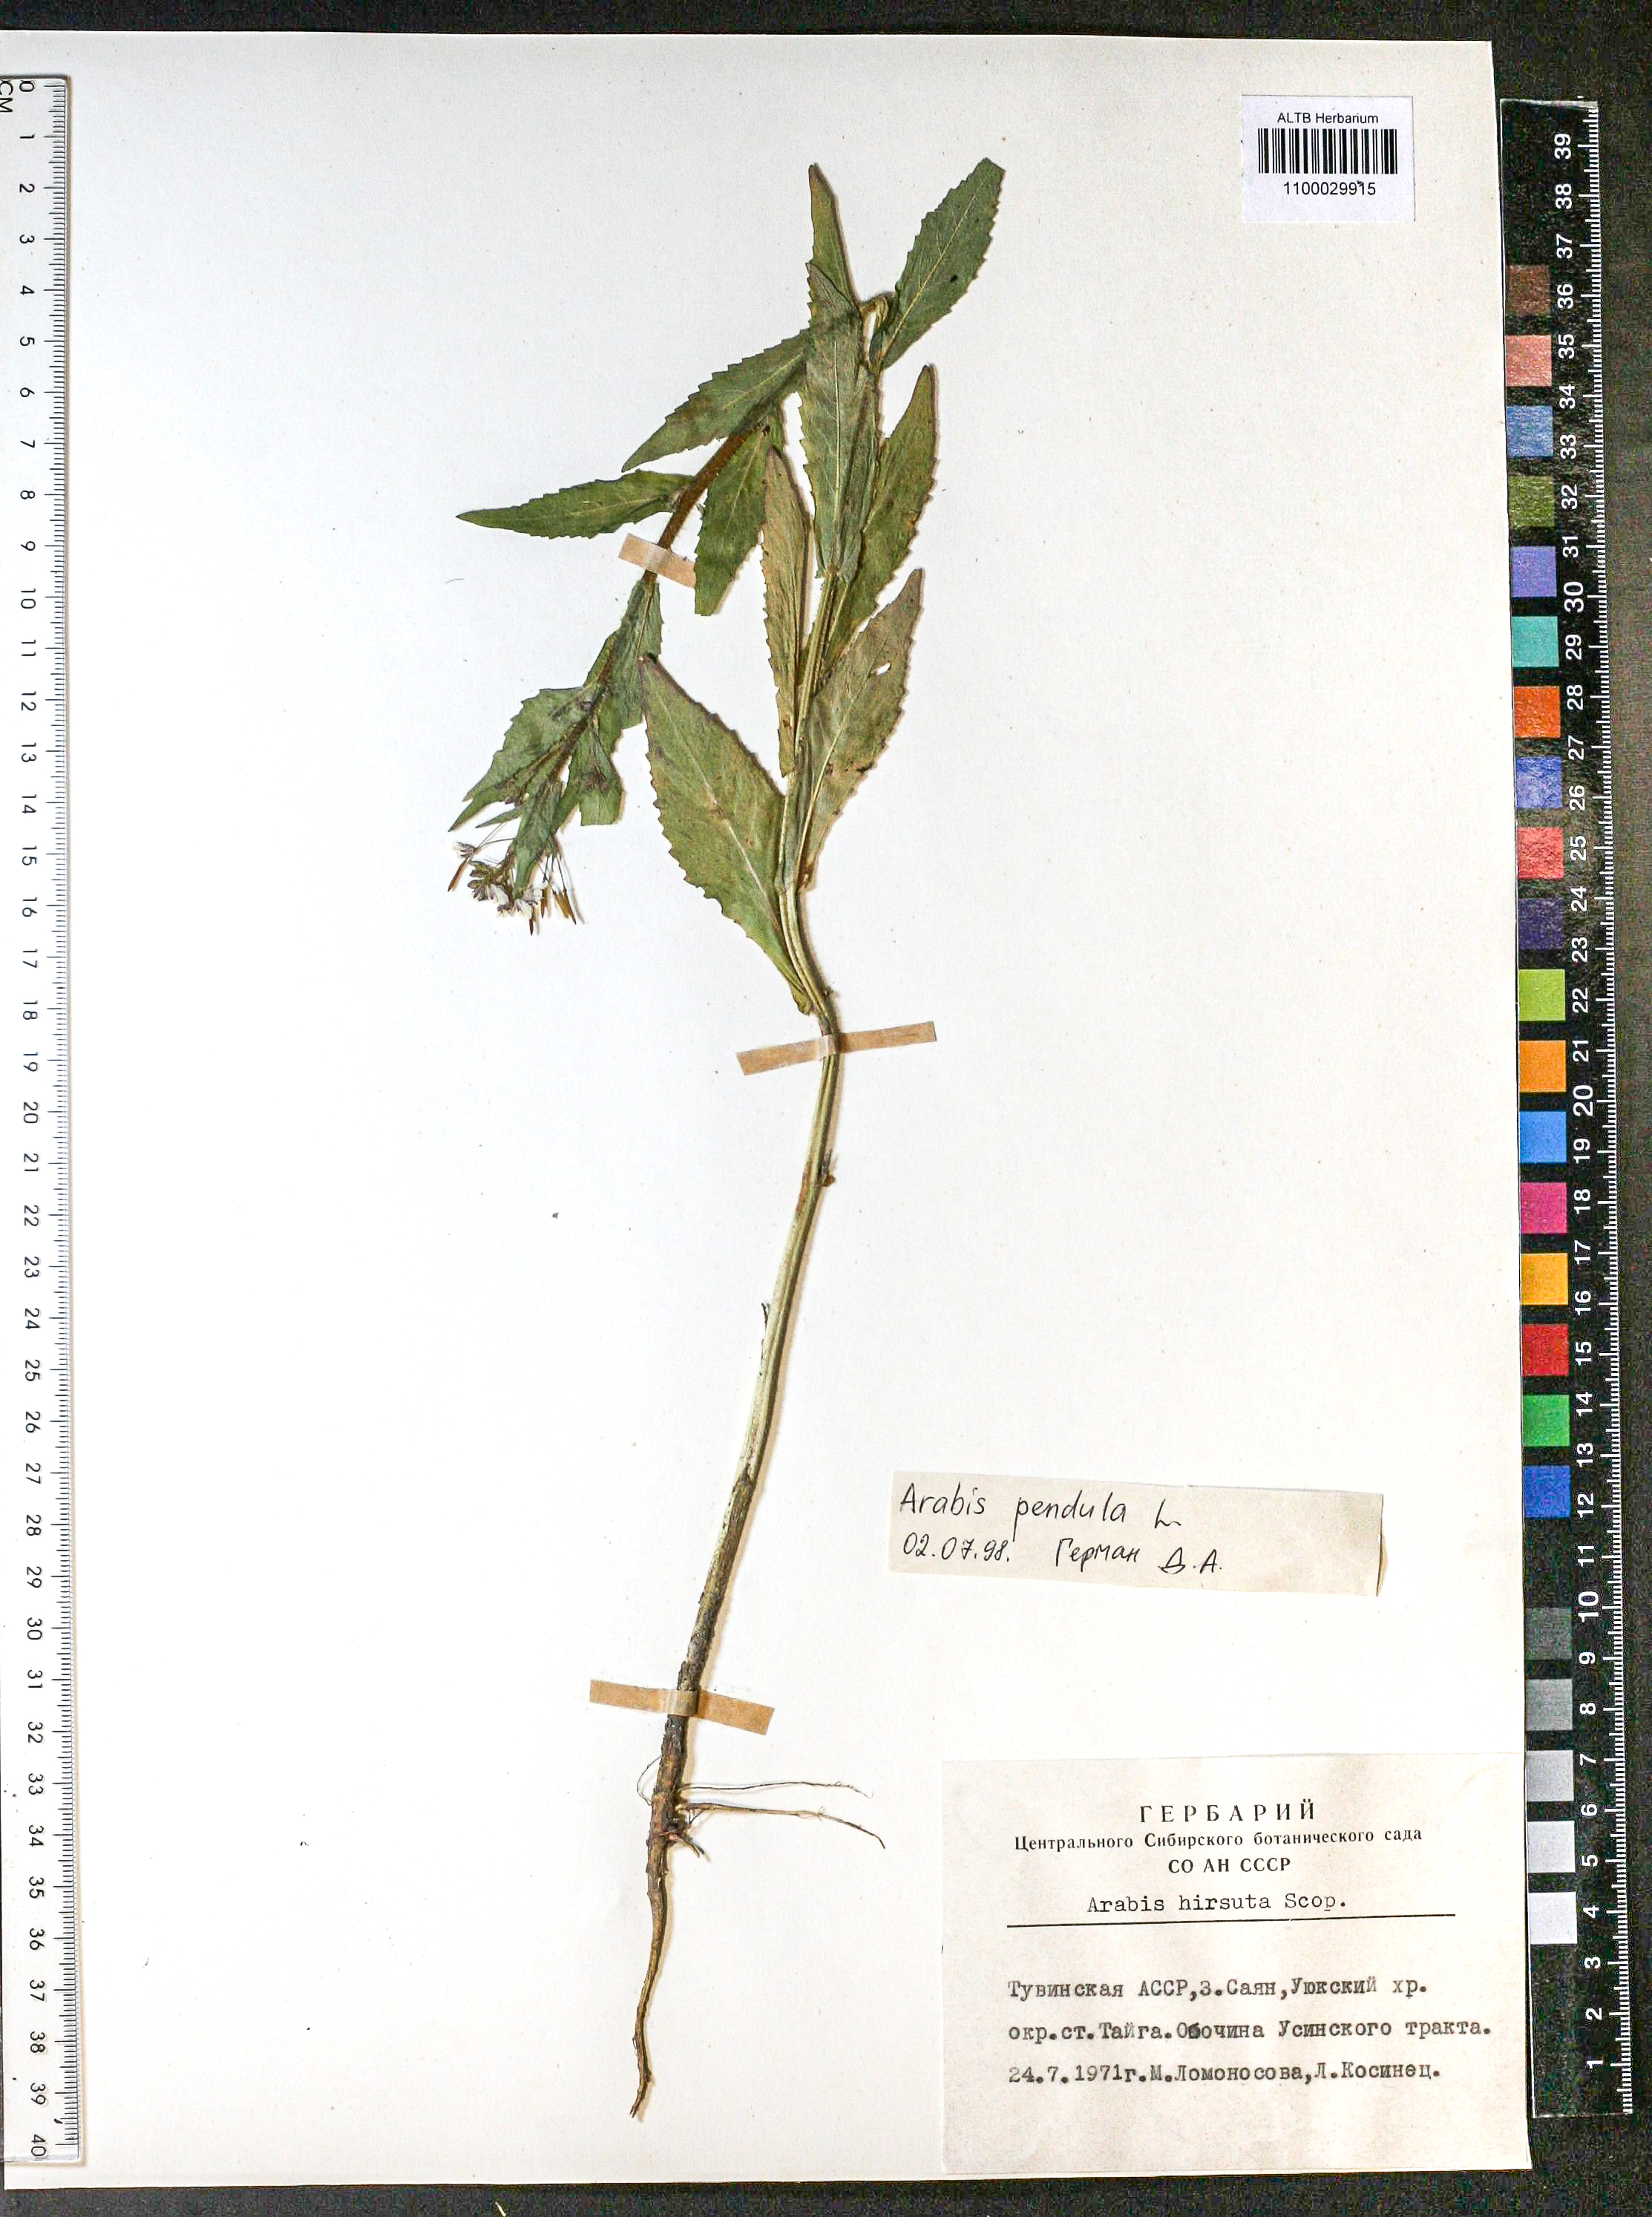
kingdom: Plantae
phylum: Tracheophyta
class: Magnoliopsida
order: Brassicales
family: Brassicaceae
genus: Catolobus
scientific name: Catolobus pendulus
